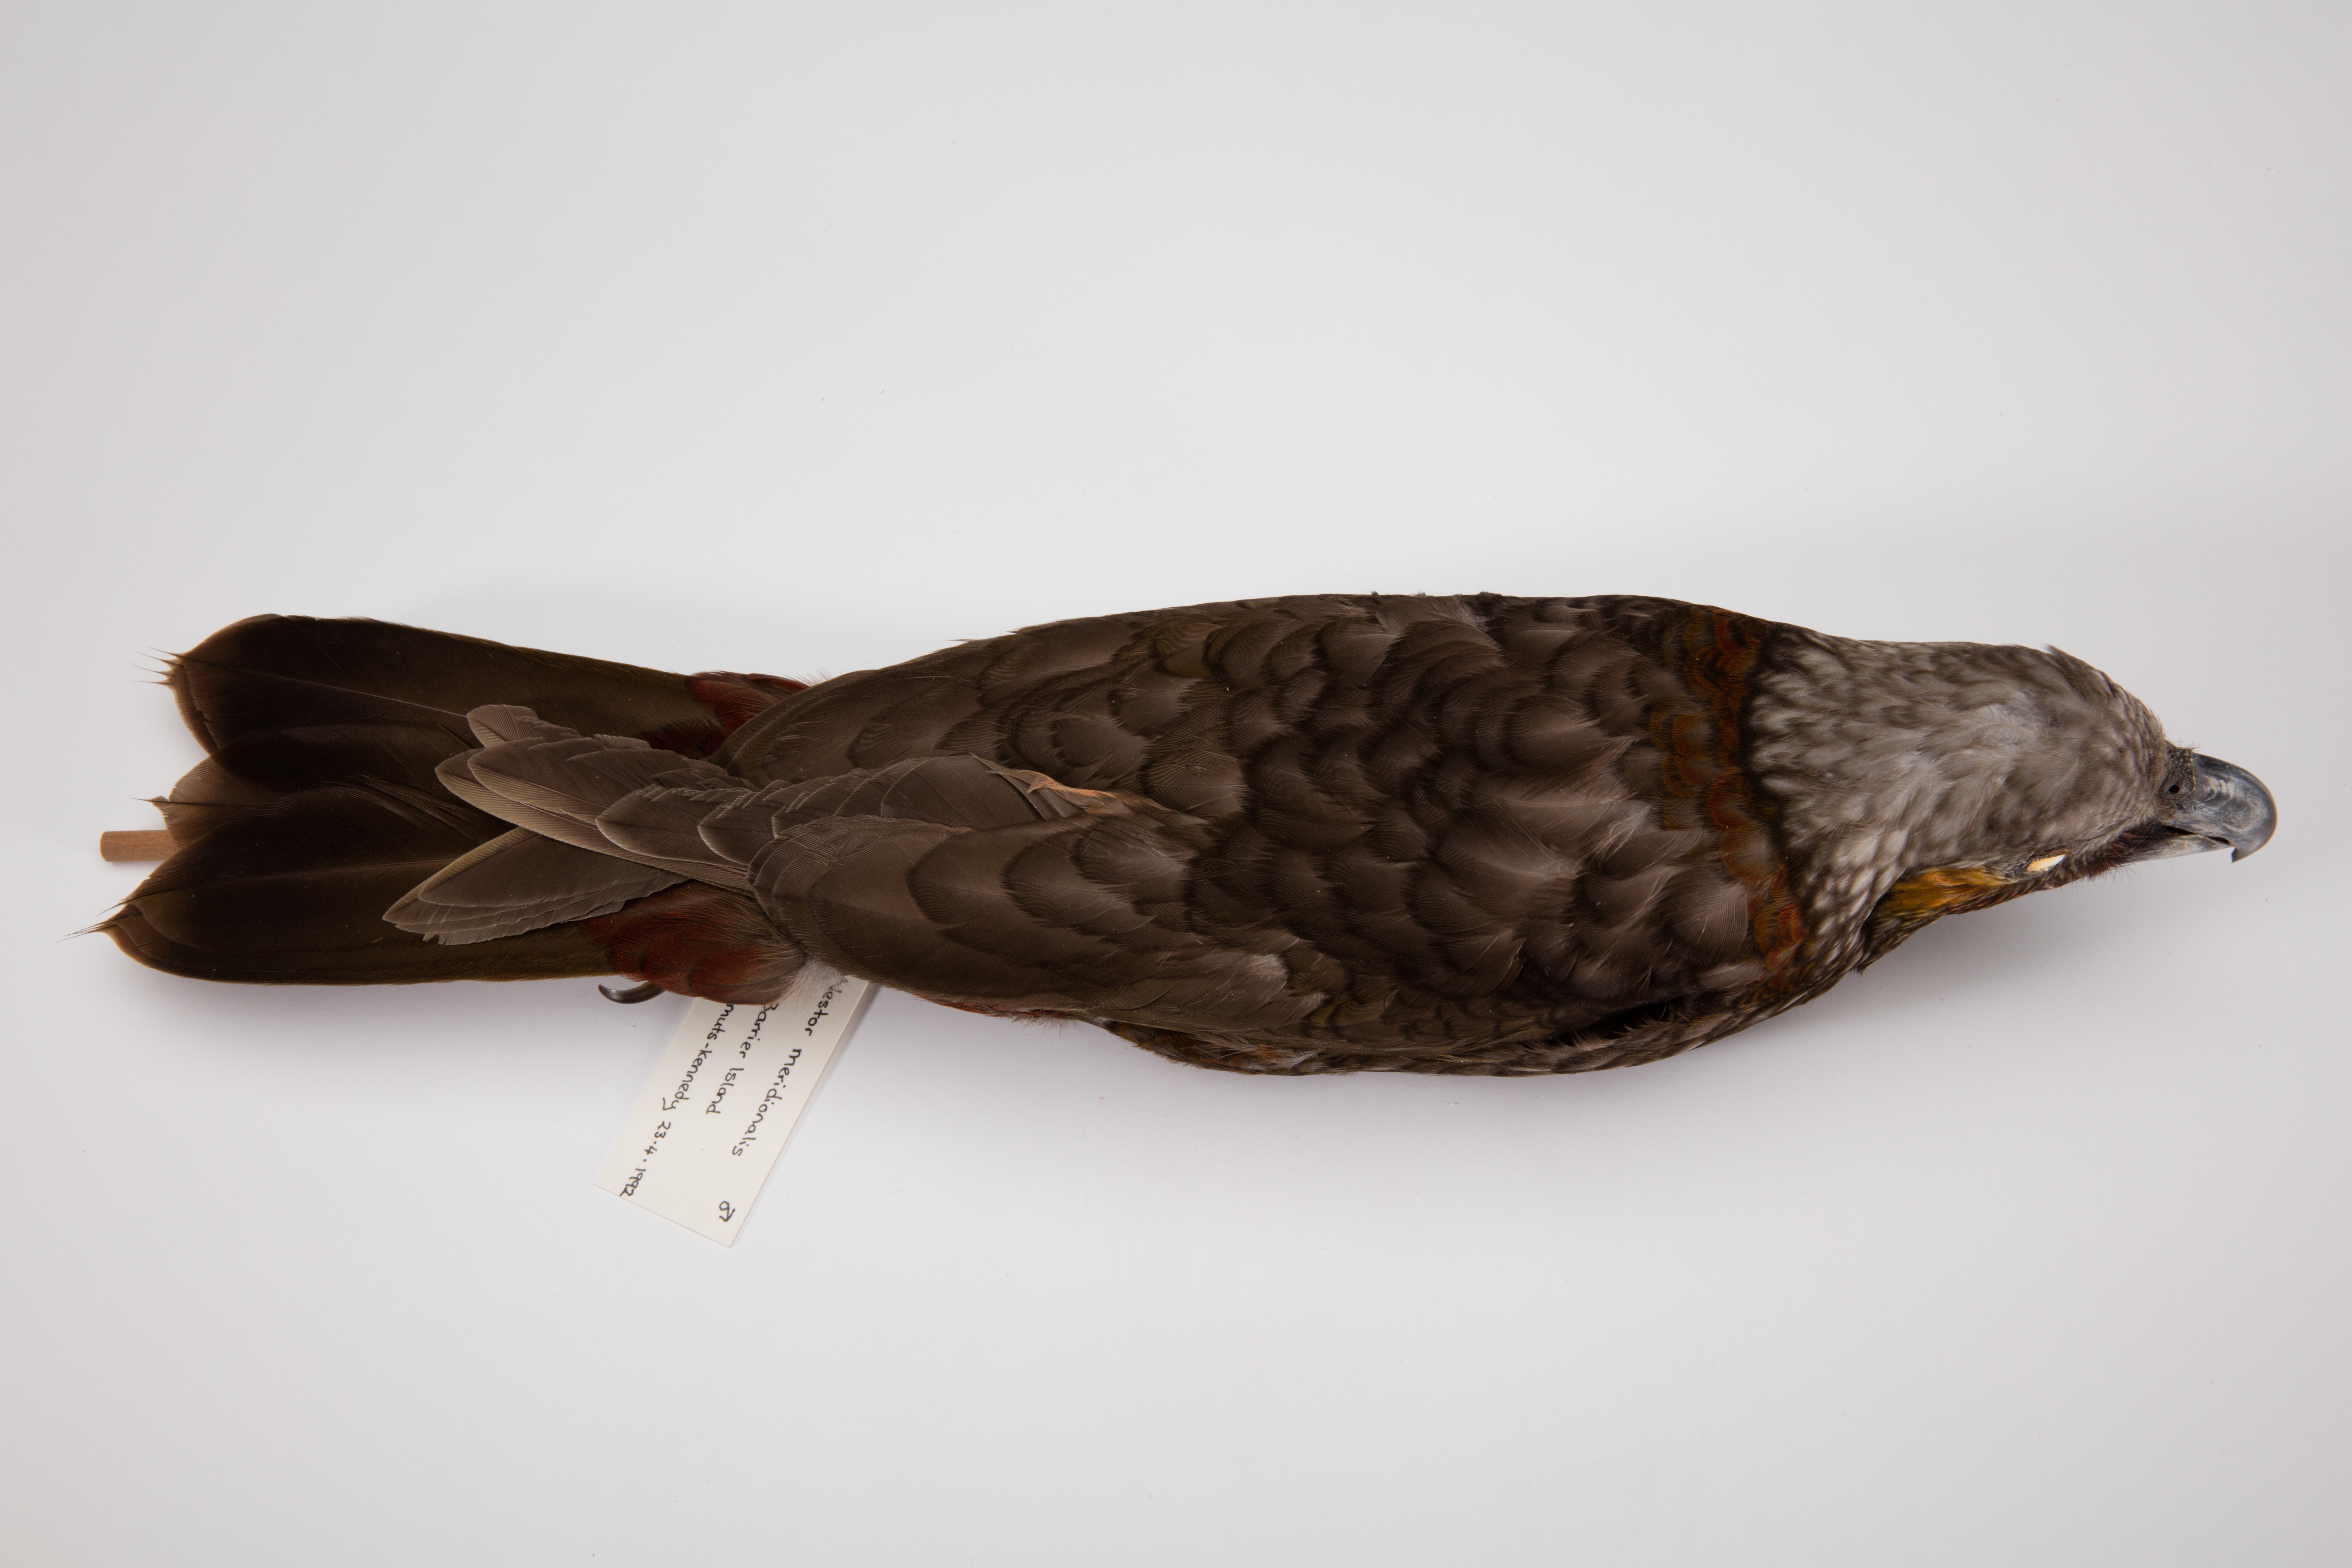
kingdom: Animalia
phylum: Chordata
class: Aves
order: Psittaciformes
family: Psittacidae
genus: Nestor
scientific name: Nestor meridionalis
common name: New zealand kaka
